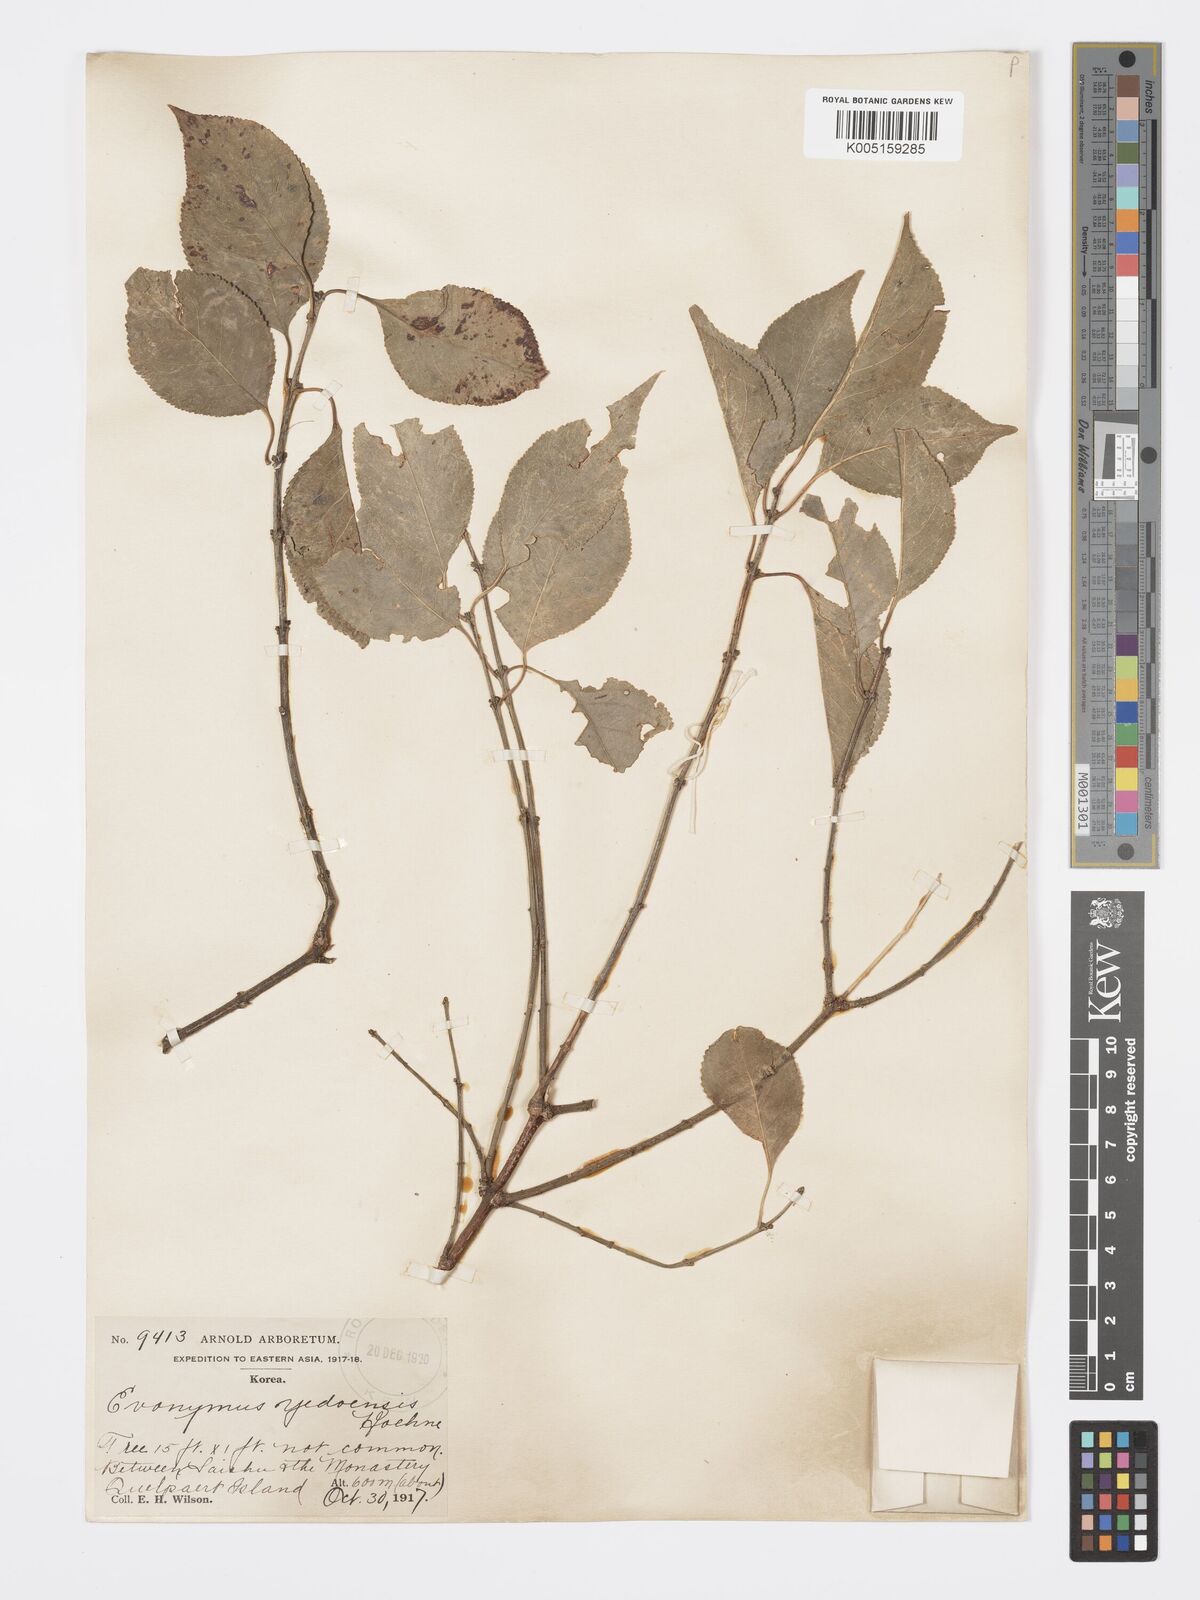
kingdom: Plantae
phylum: Tracheophyta
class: Magnoliopsida
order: Celastrales
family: Celastraceae
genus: Euonymus
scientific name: Euonymus hamiltonianus
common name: Hamilton's spindletree
